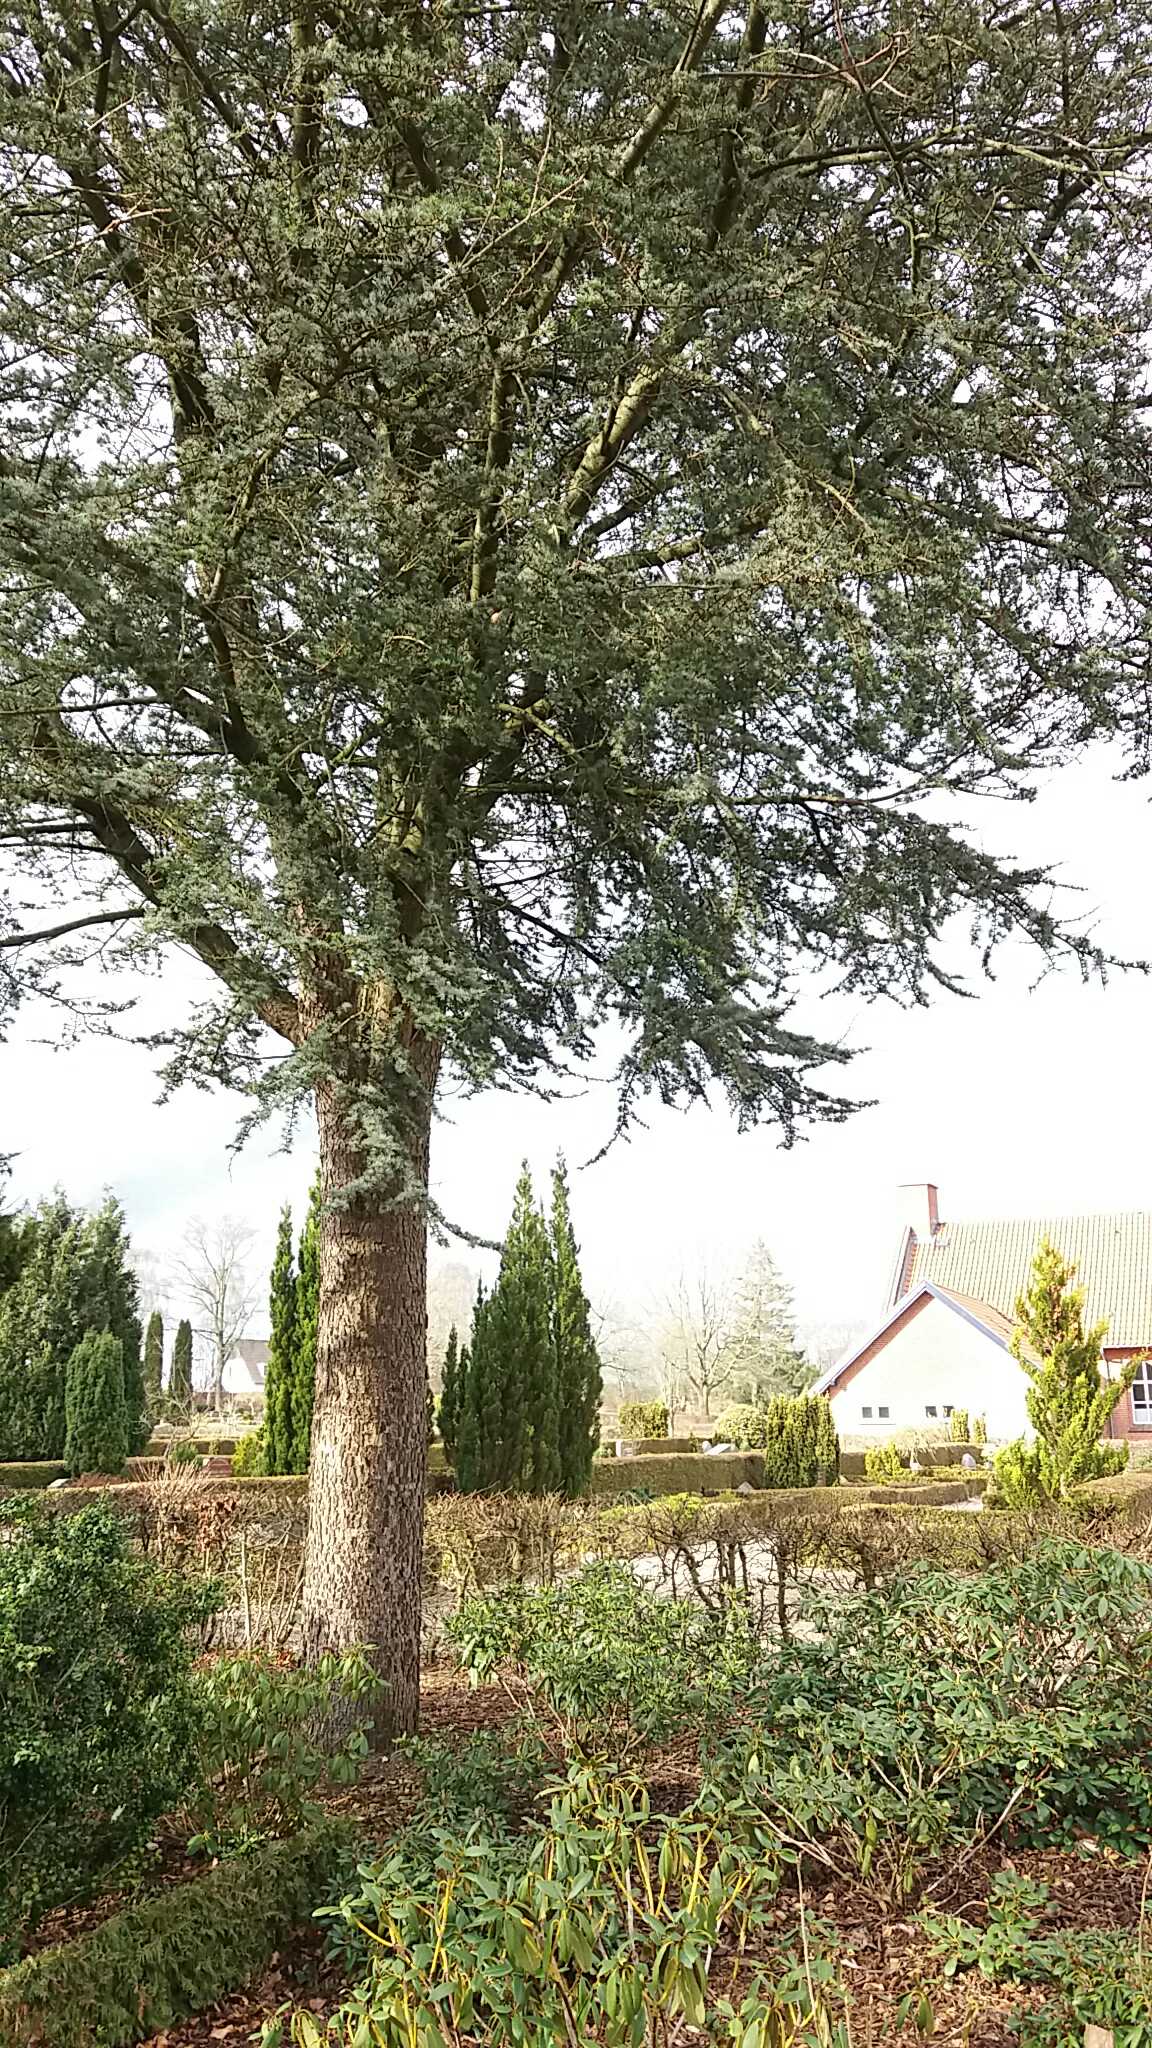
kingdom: Fungi
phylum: Basidiomycota
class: Agaricomycetes
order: Geastrales
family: Geastraceae
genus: Geastrum
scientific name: Geastrum michelianum
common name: kødet stjernebold
